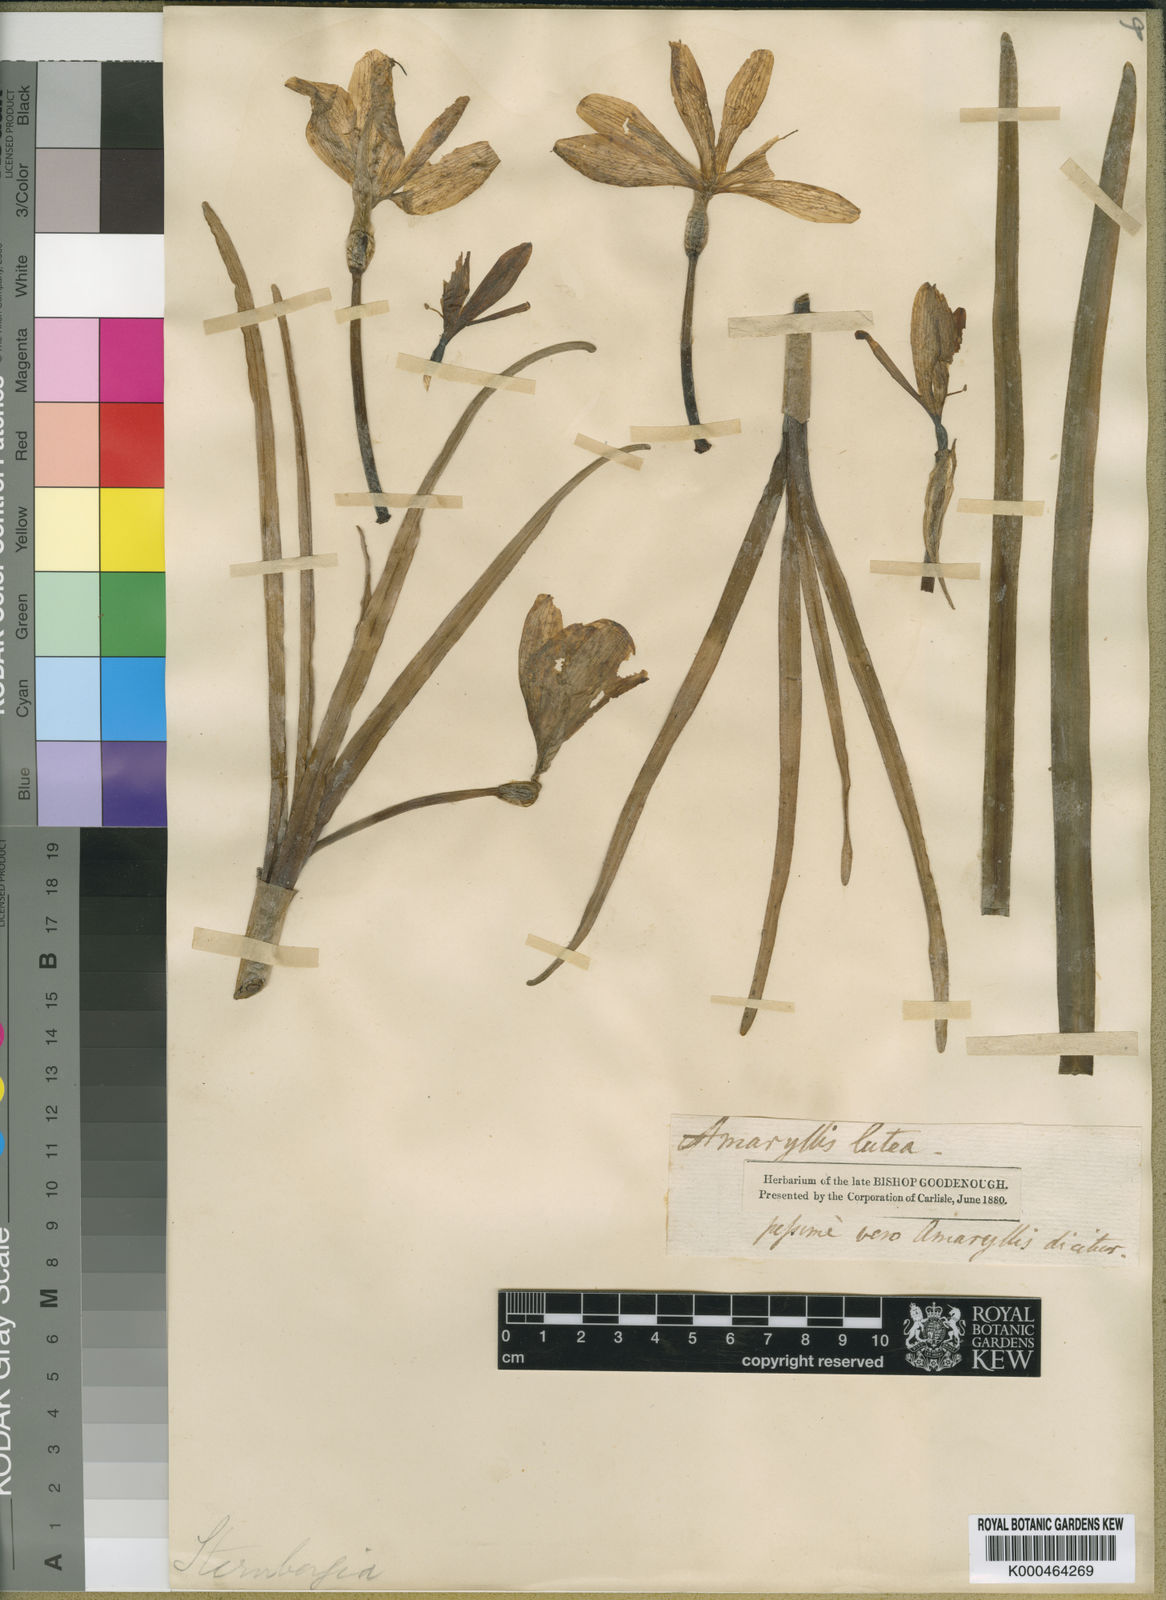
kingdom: Plantae
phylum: Tracheophyta
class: Liliopsida
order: Asparagales
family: Amaryllidaceae
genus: Sternbergia
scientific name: Sternbergia
